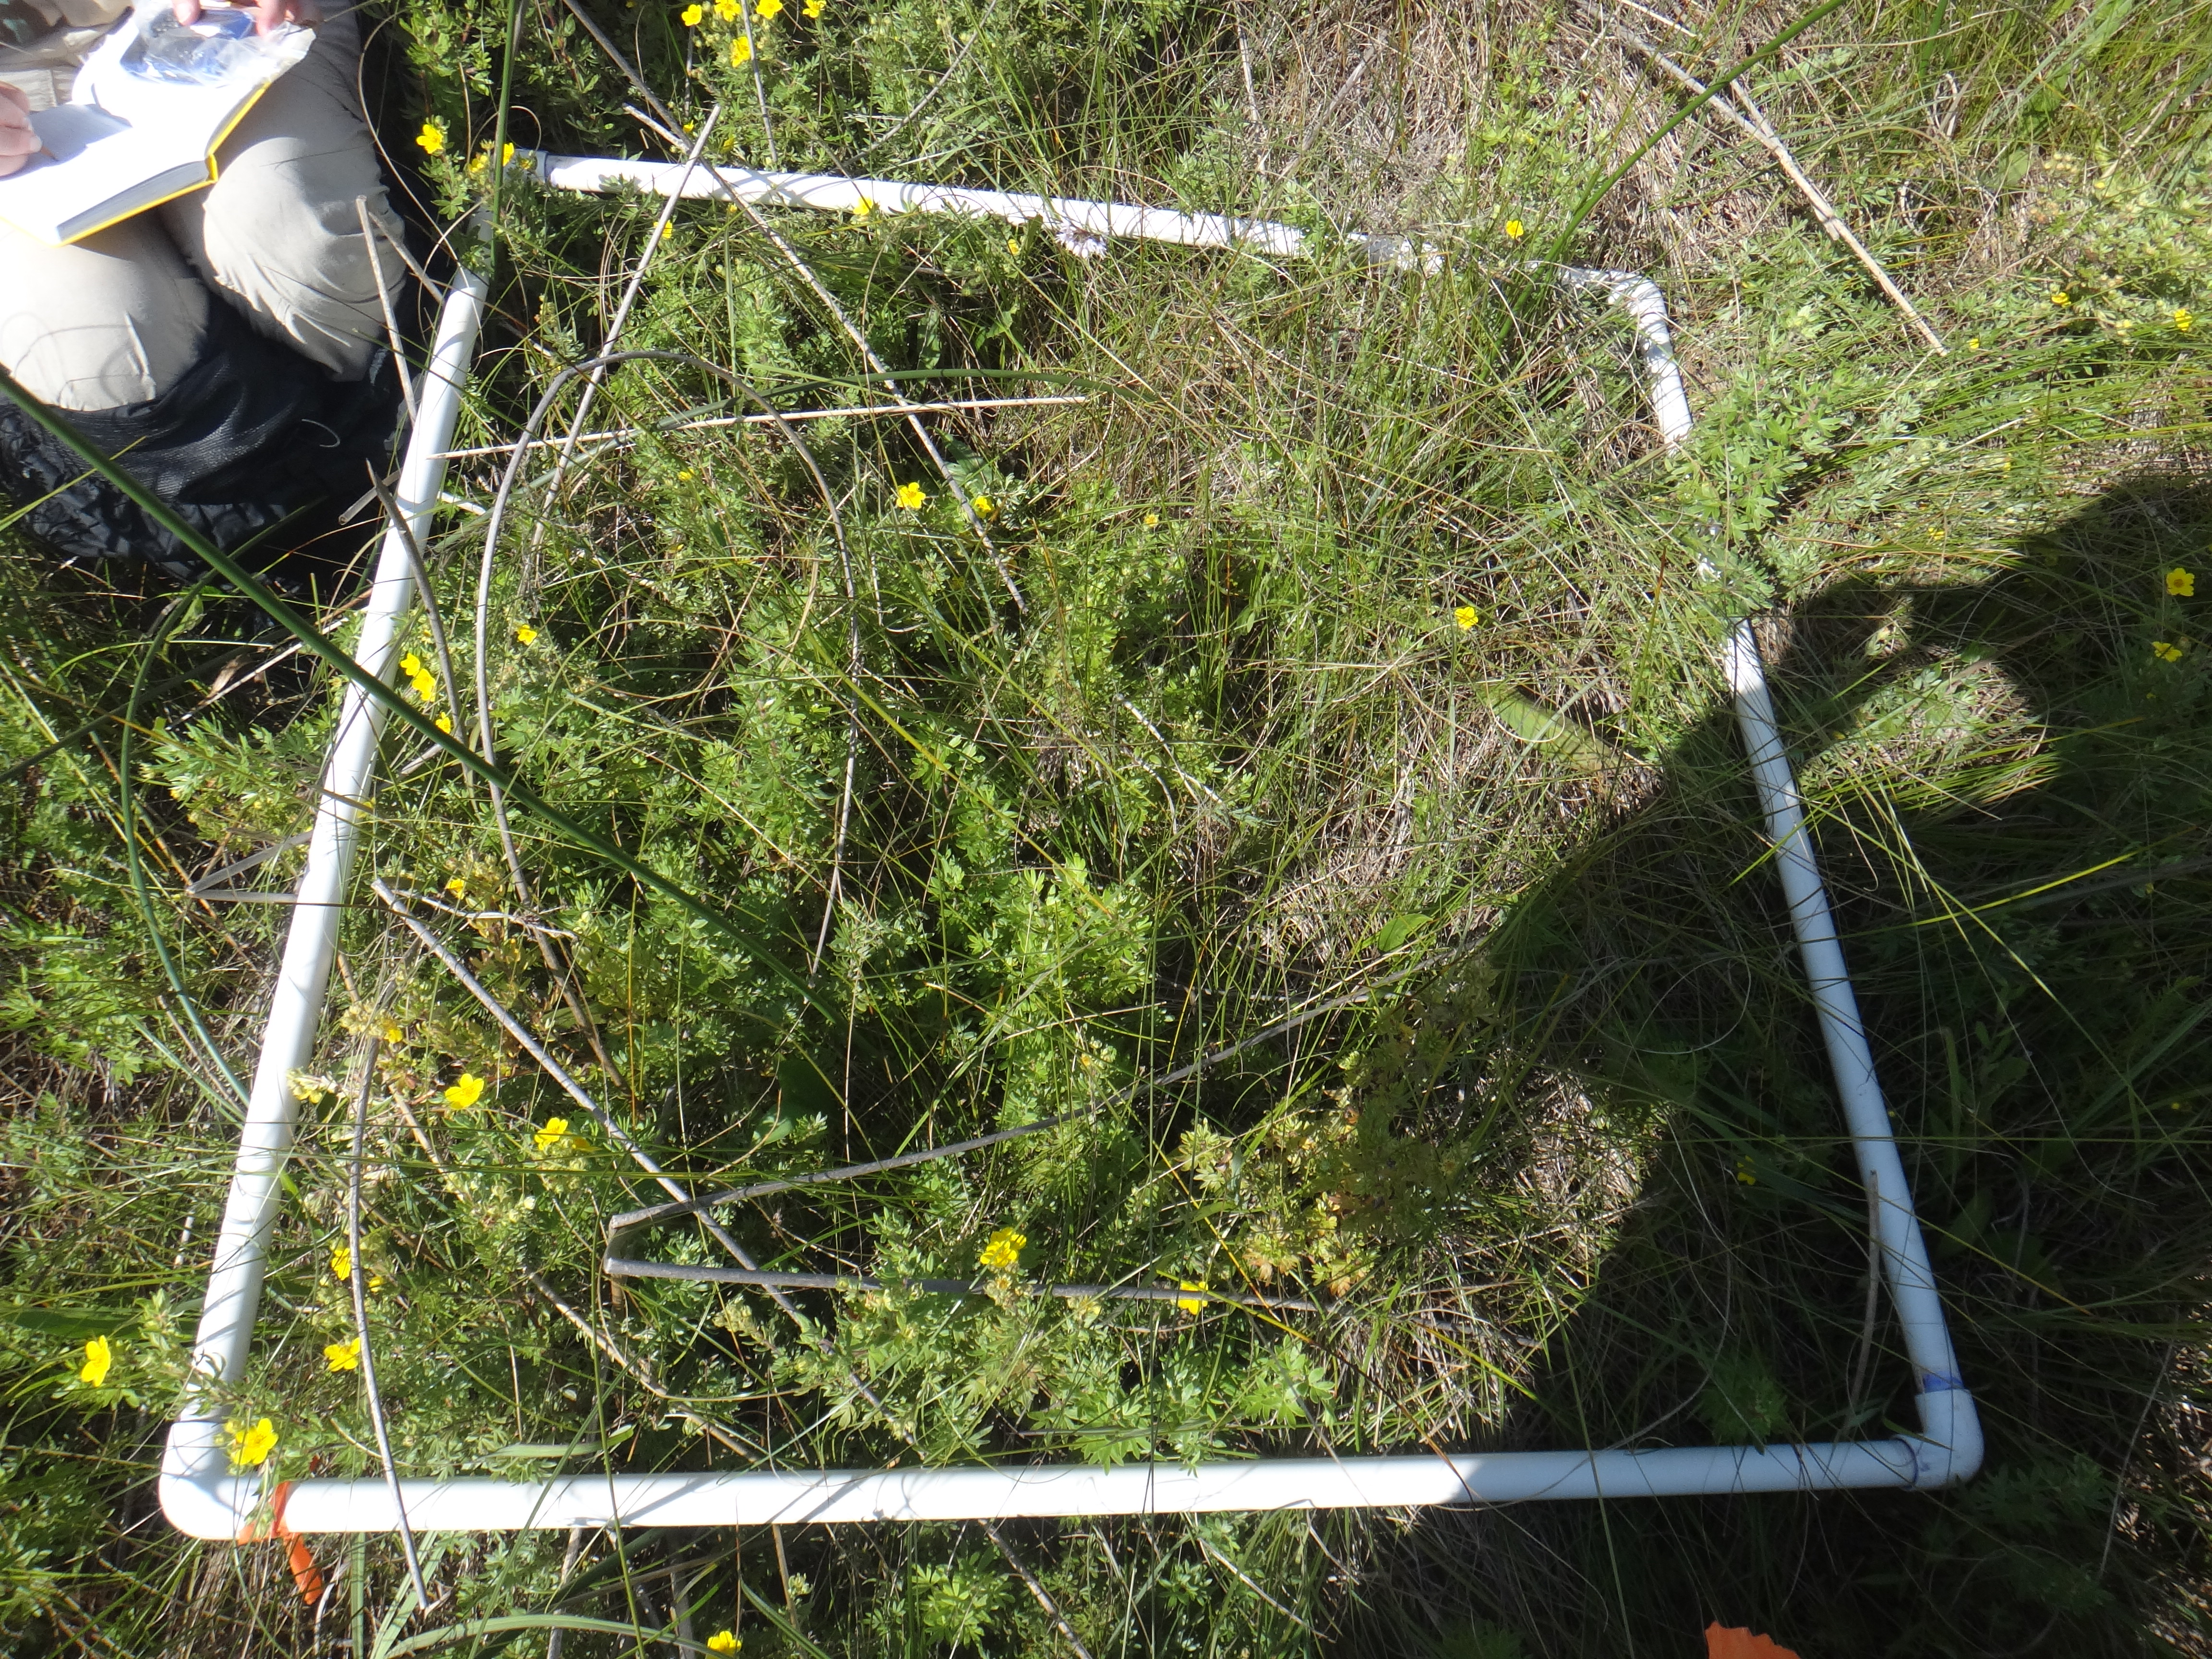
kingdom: Plantae
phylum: Tracheophyta
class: Magnoliopsida
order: Rosales
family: Rosaceae
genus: Dasiphora
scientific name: Dasiphora fruticosa
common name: Shrubby cinquefoil
